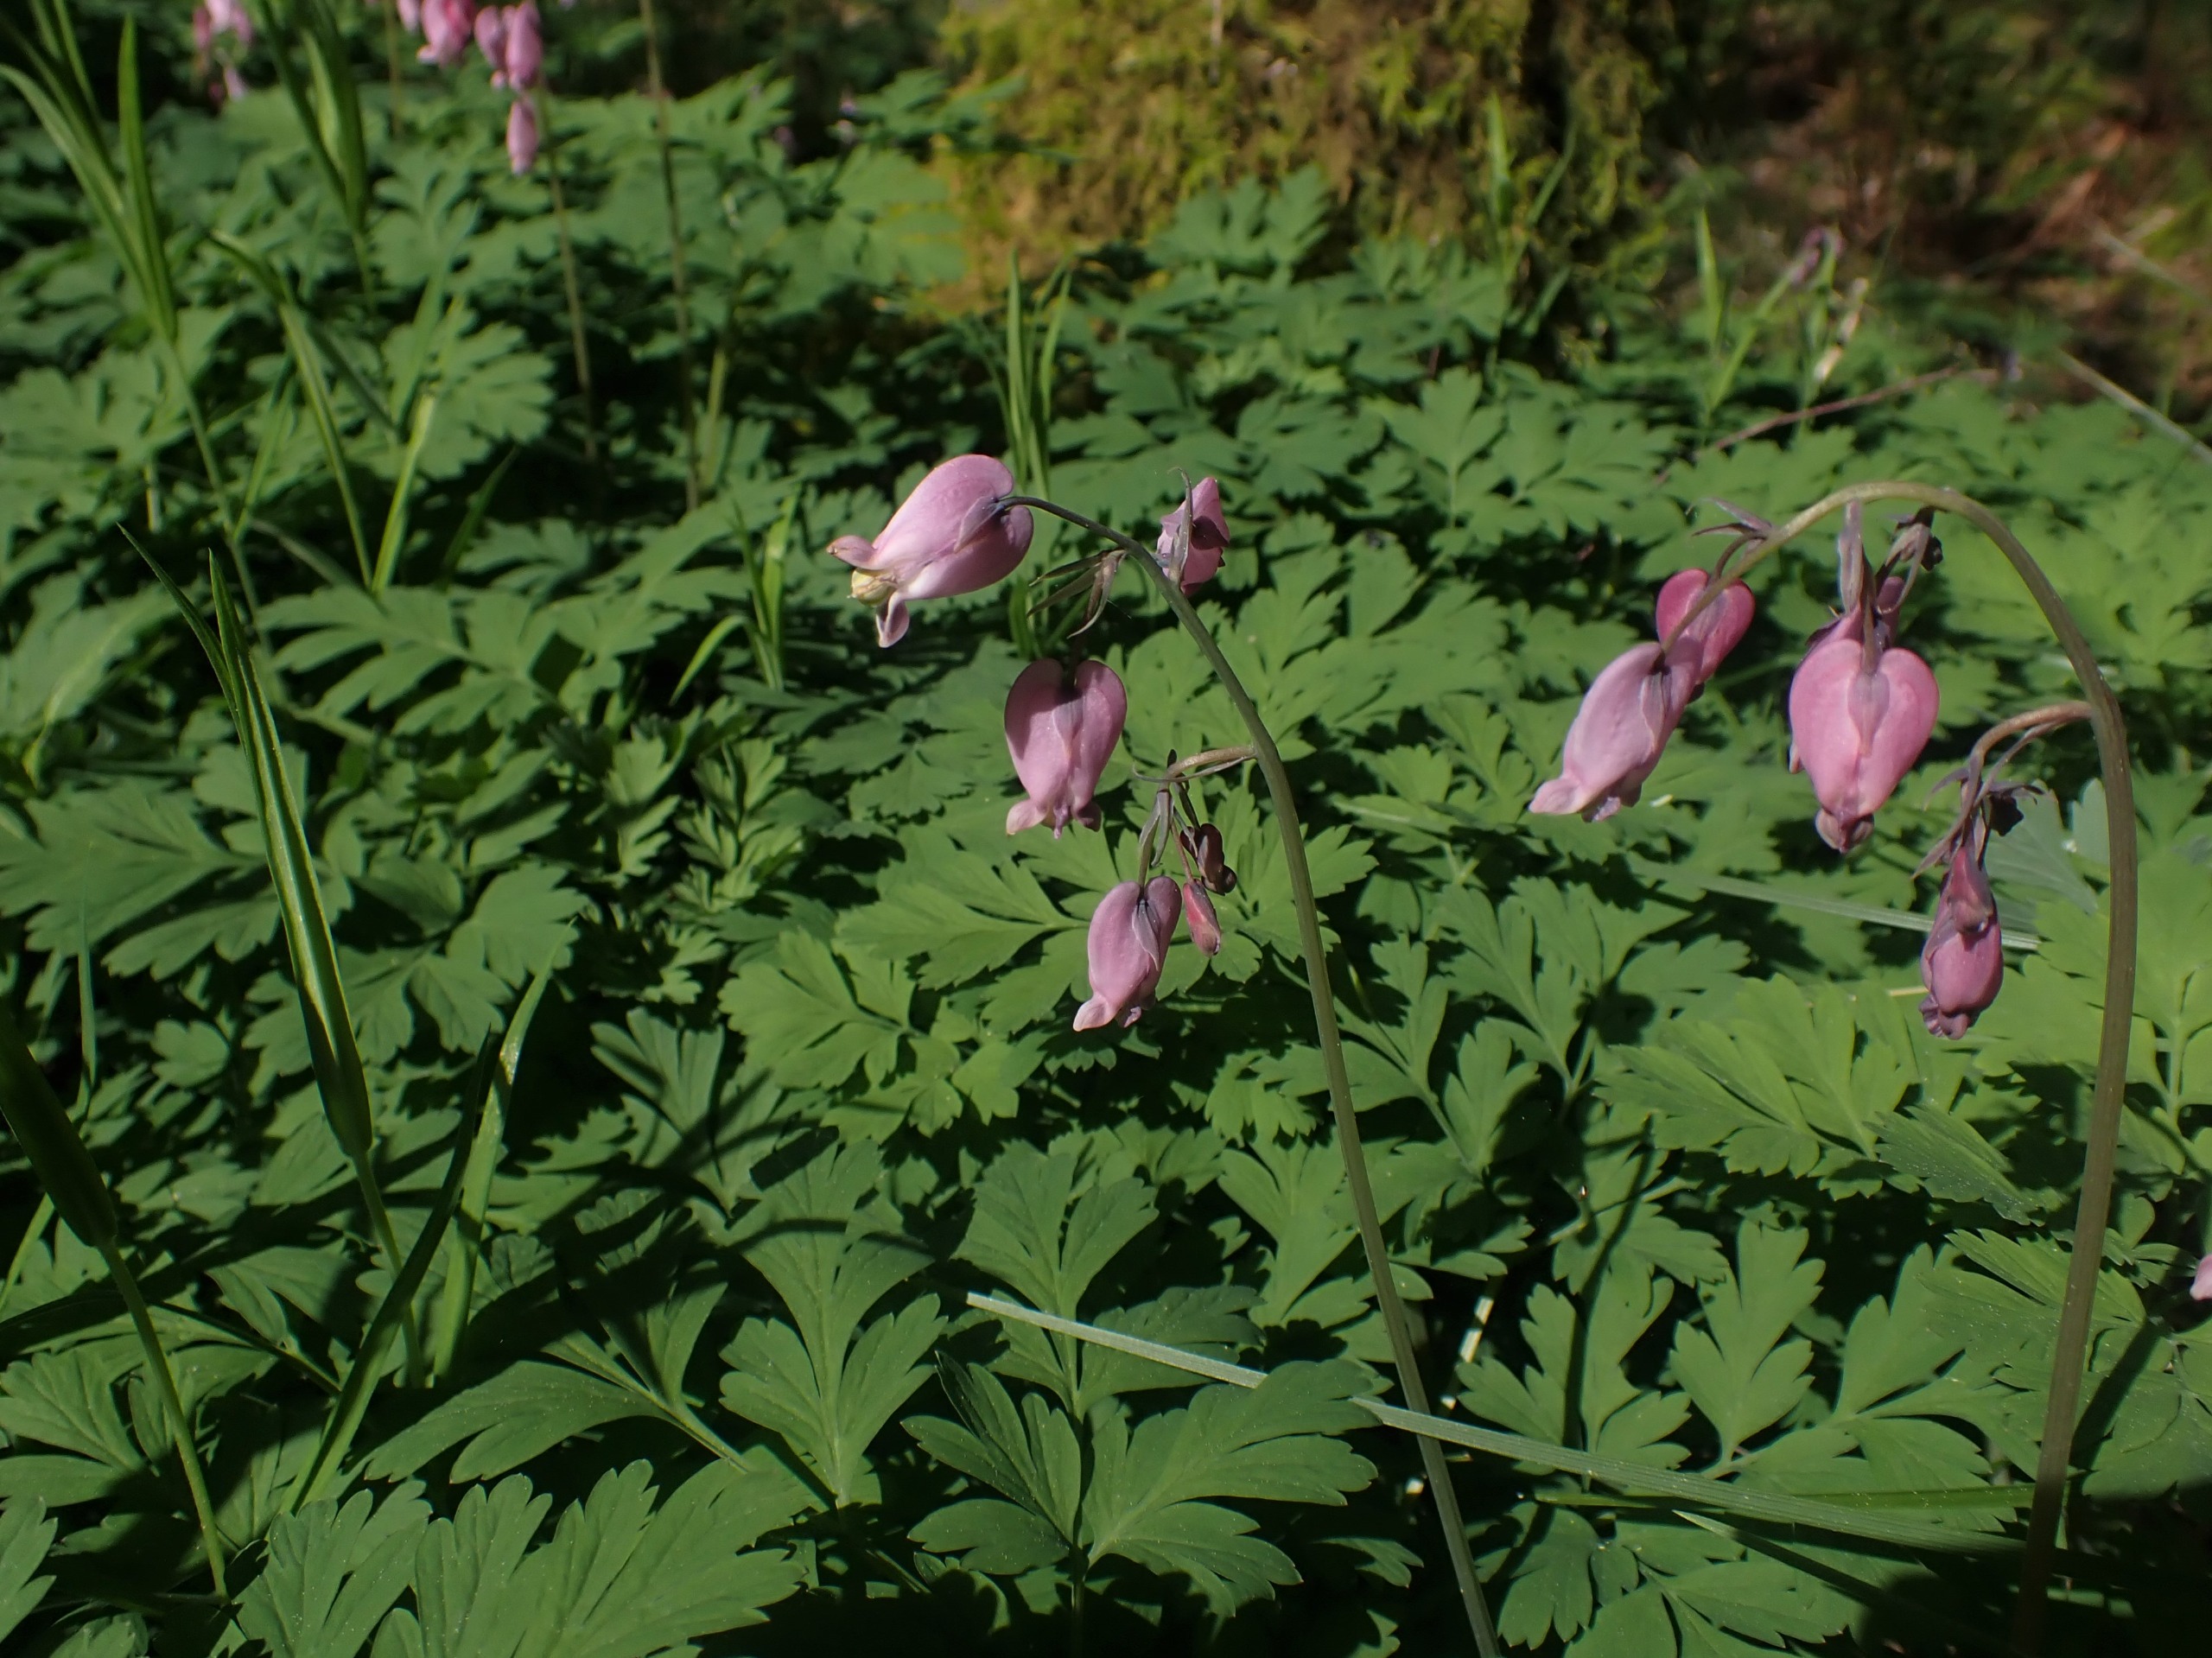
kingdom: Plantae
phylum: Tracheophyta
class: Magnoliopsida
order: Ranunculales
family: Papaveraceae
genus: Dicentra
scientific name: Dicentra formosa
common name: Småhjerte
